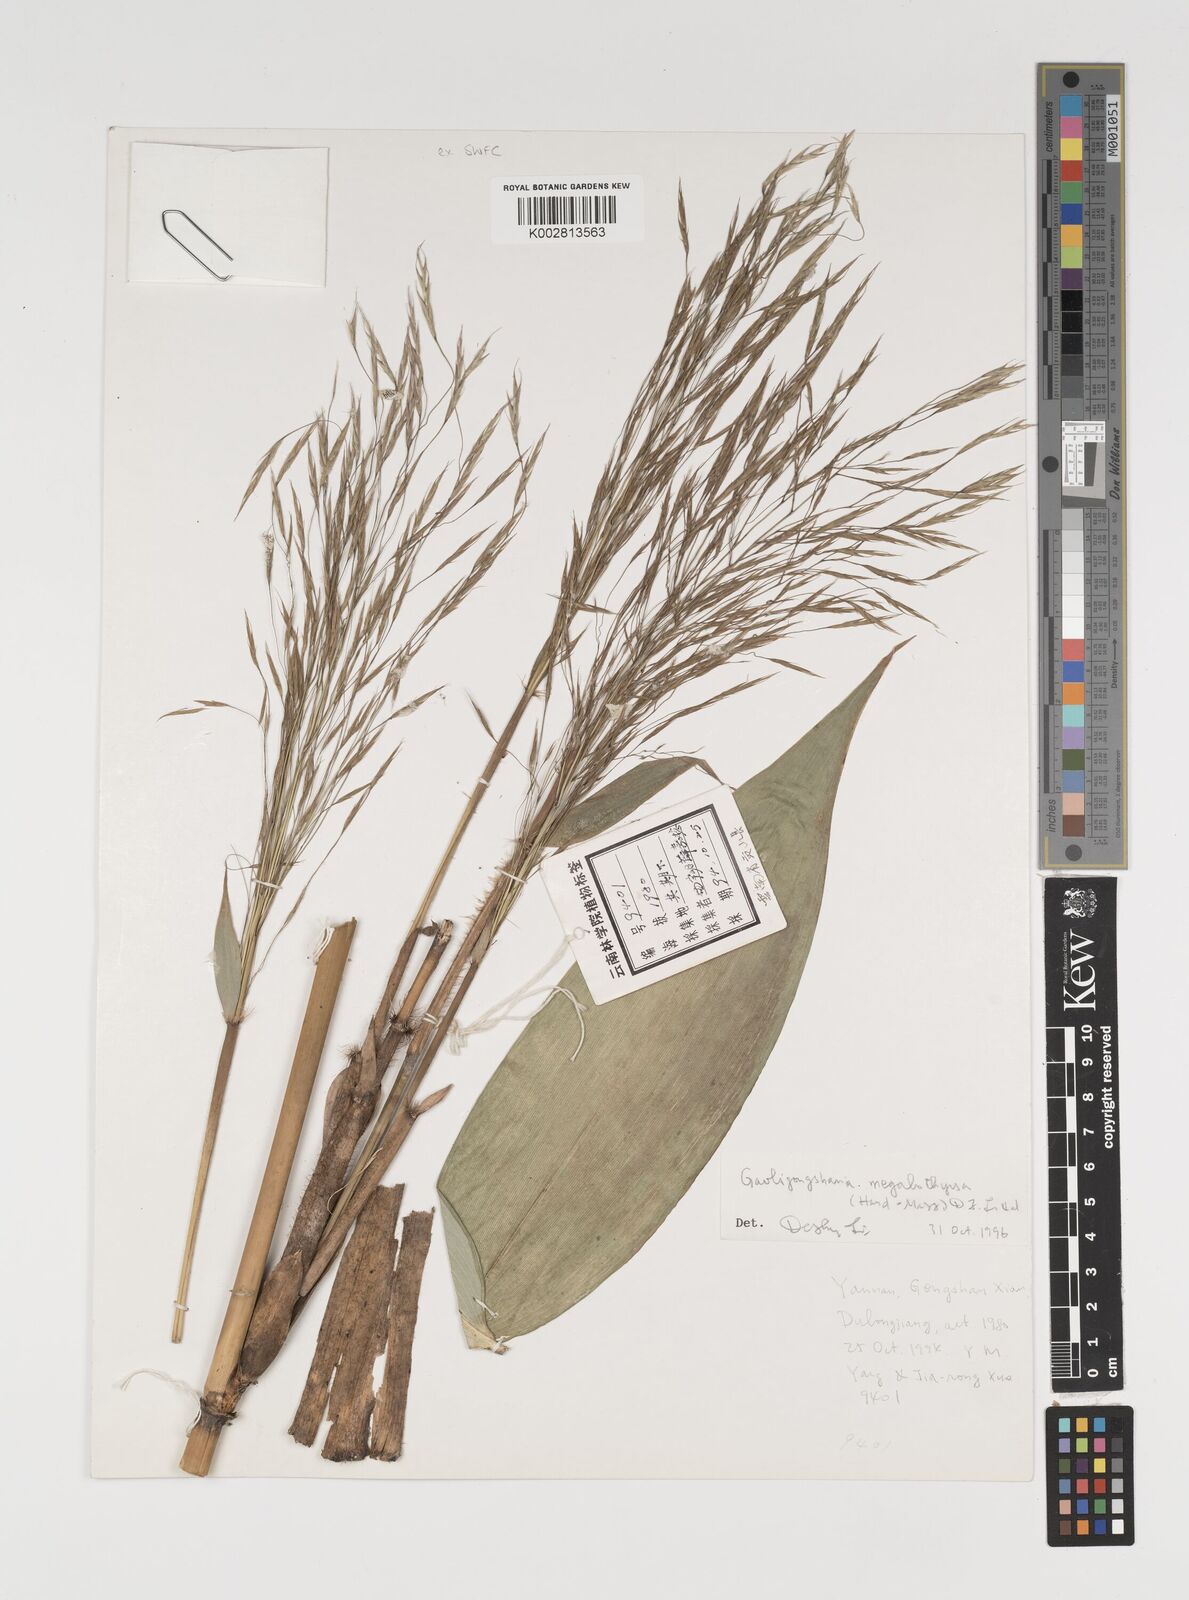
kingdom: Plantae
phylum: Tracheophyta
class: Liliopsida
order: Poales
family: Poaceae
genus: Thamnocalamus
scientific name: Thamnocalamus
